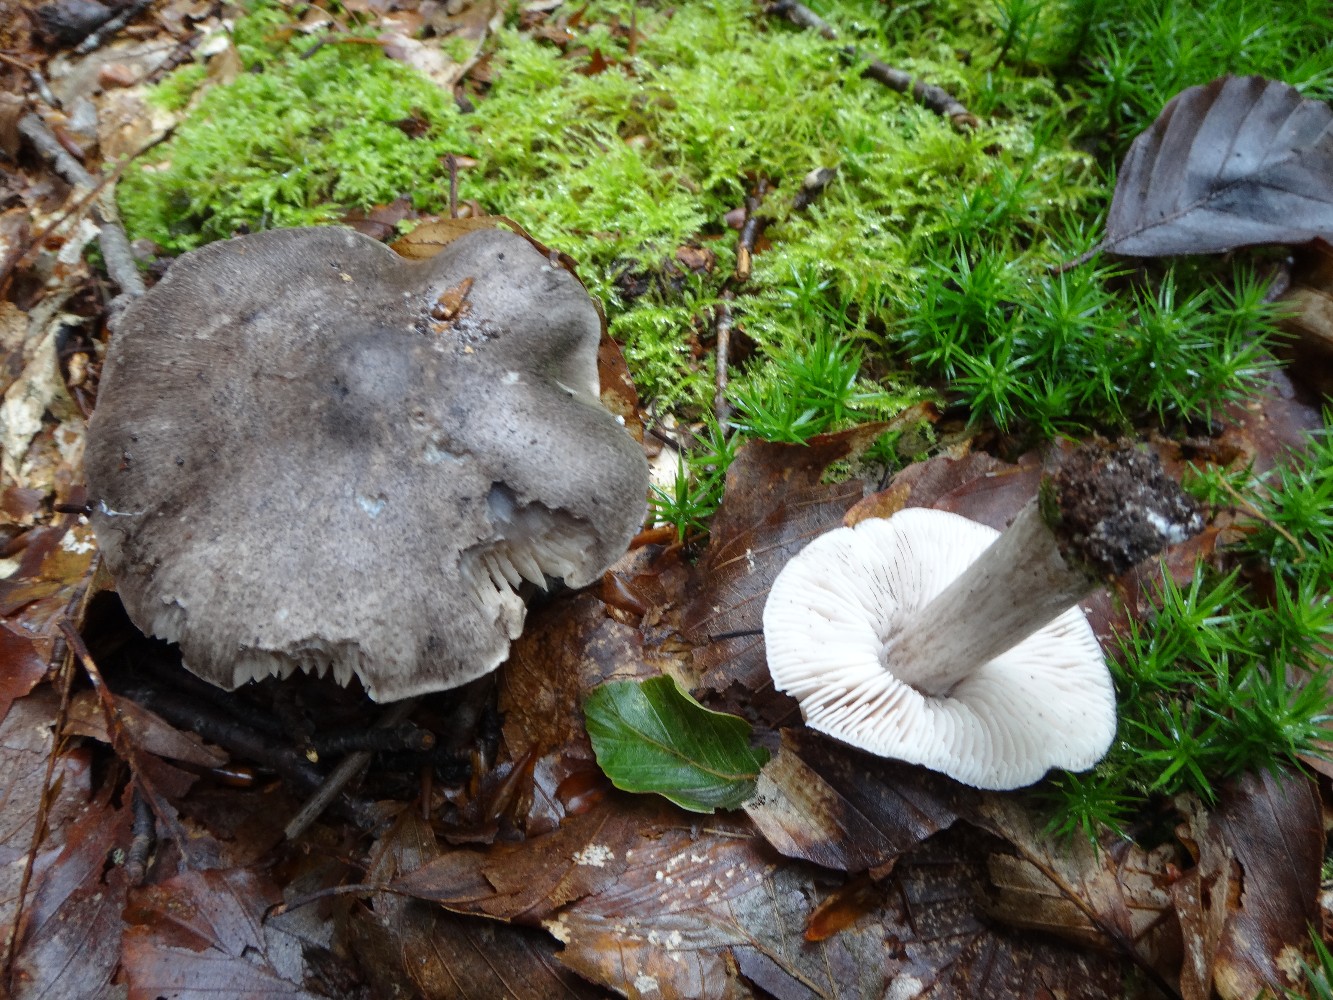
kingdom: Fungi
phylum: Basidiomycota
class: Agaricomycetes
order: Agaricales
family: Tricholomataceae
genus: Tricholoma
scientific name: Tricholoma sciodes
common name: stribet ridderhat
